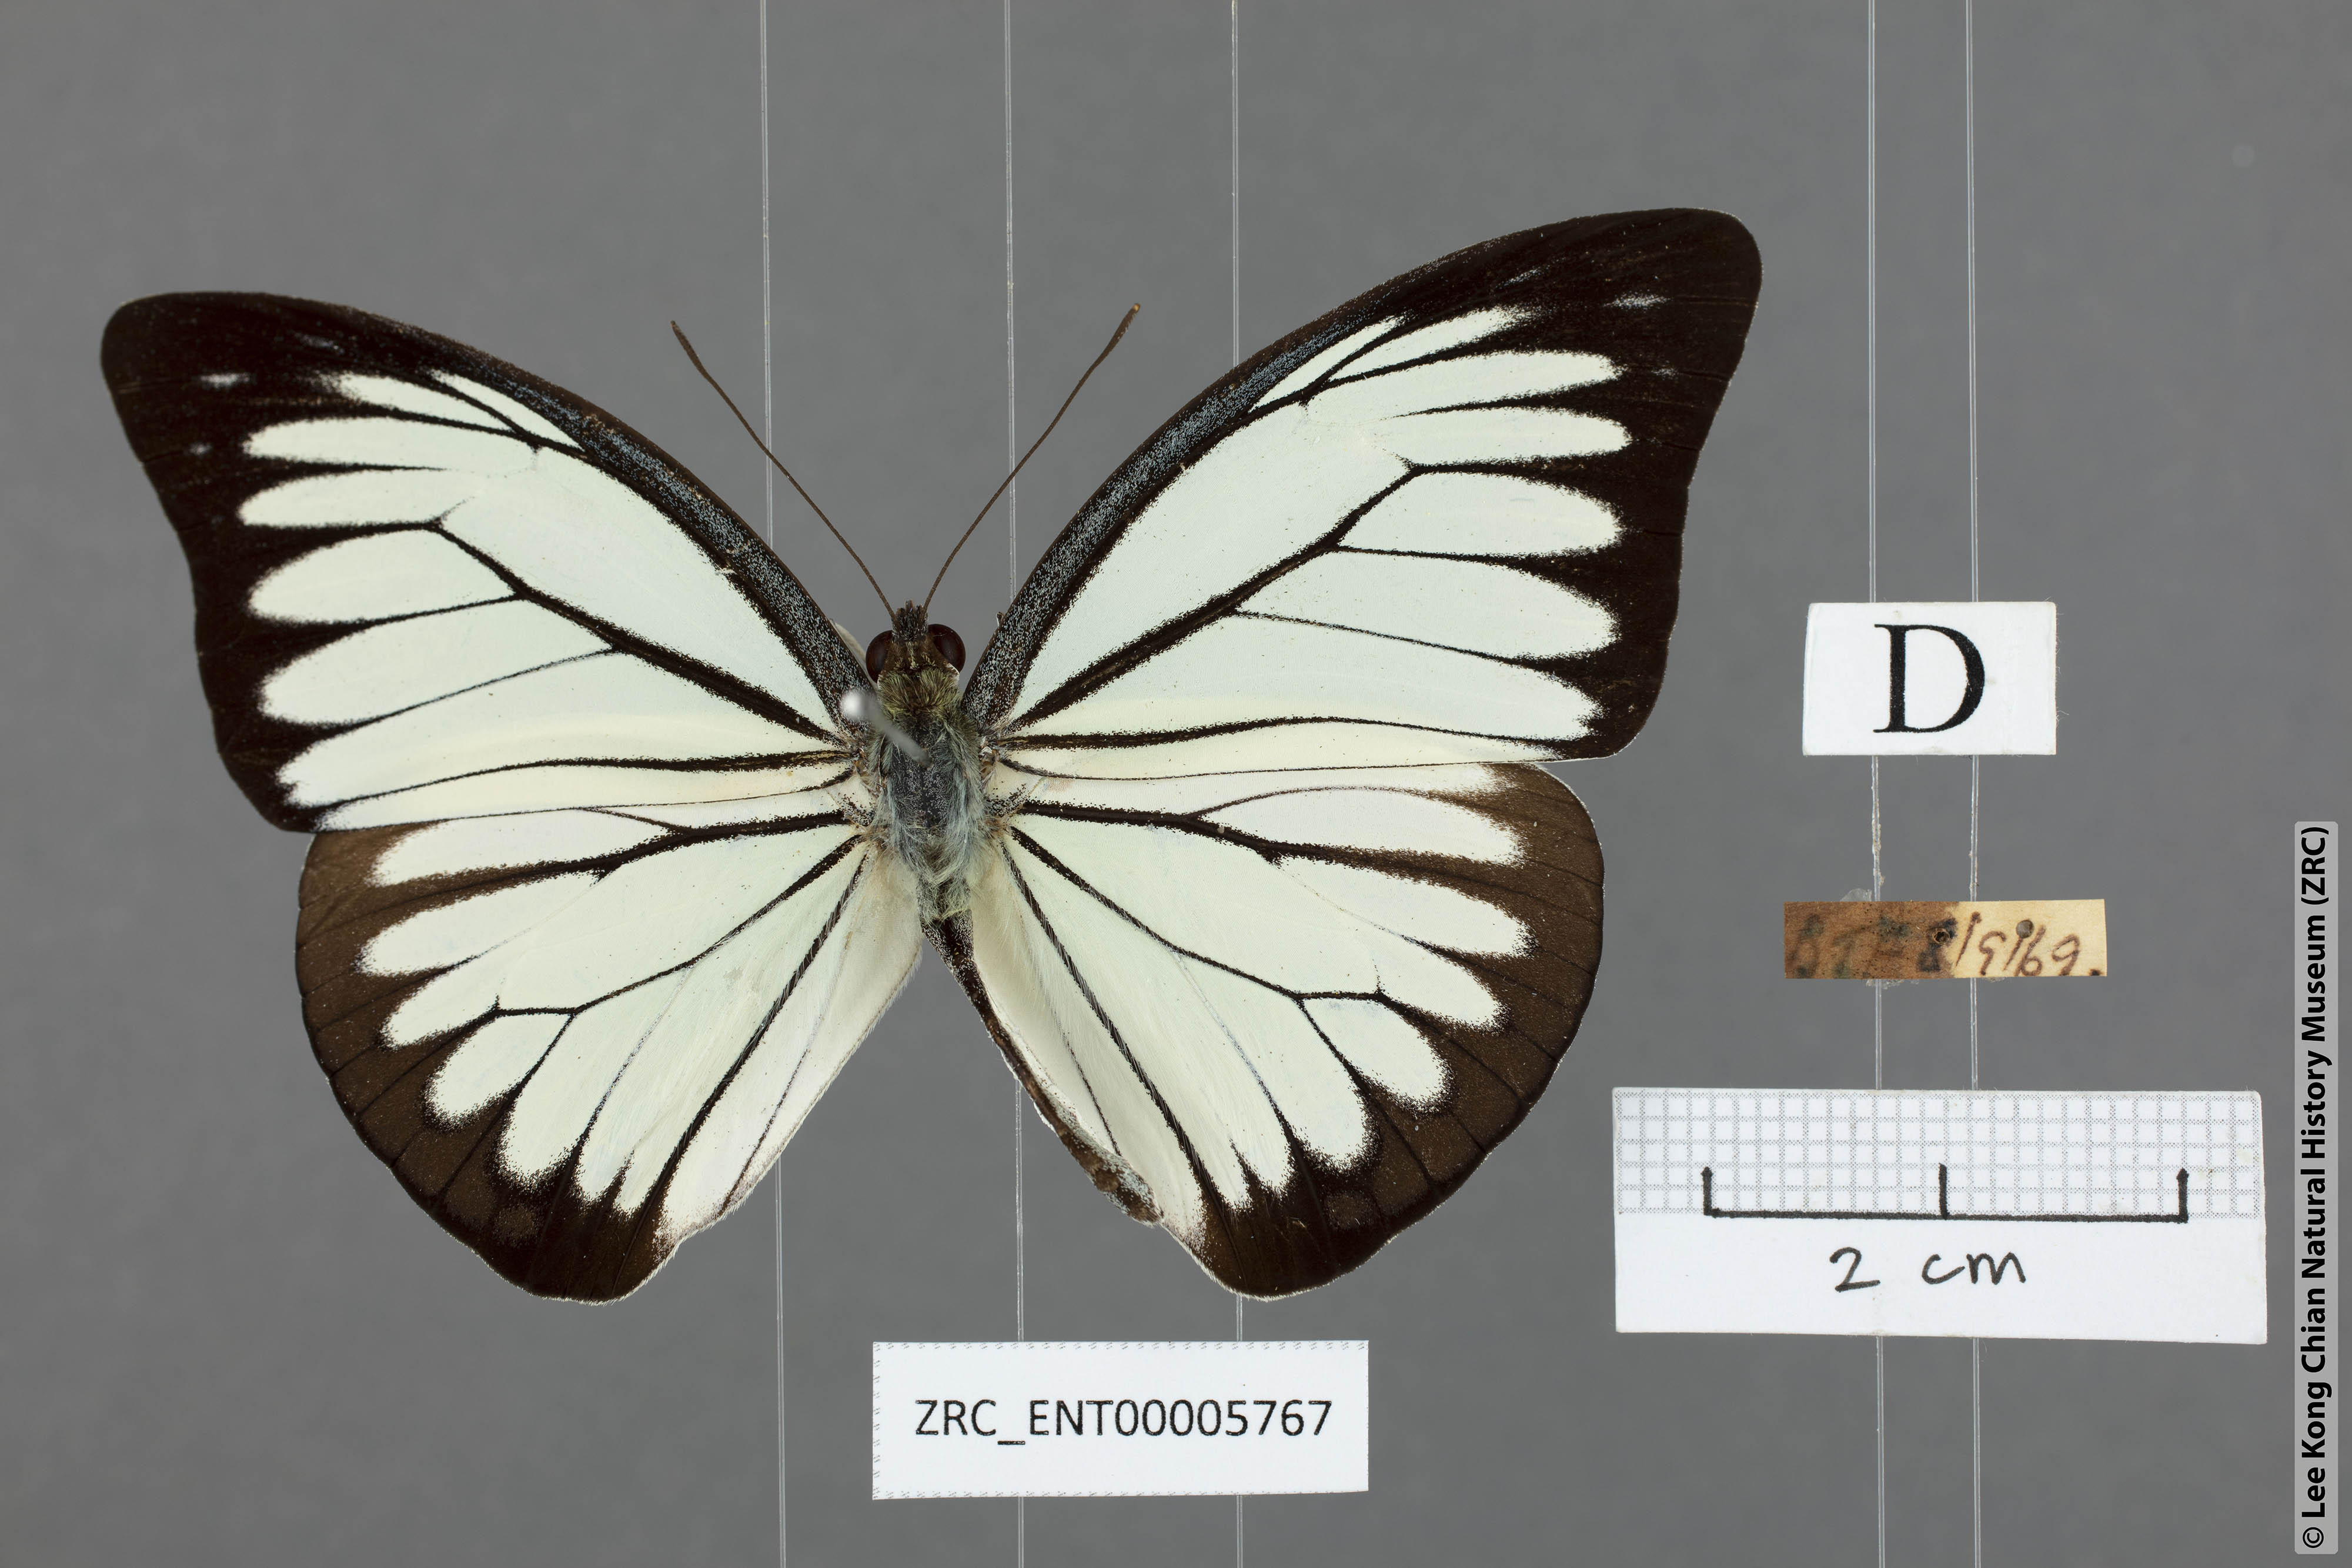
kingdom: Animalia
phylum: Arthropoda
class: Insecta
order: Lepidoptera
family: Pieridae
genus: Pareronia
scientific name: Pareronia valeria
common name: Common wanderer?
